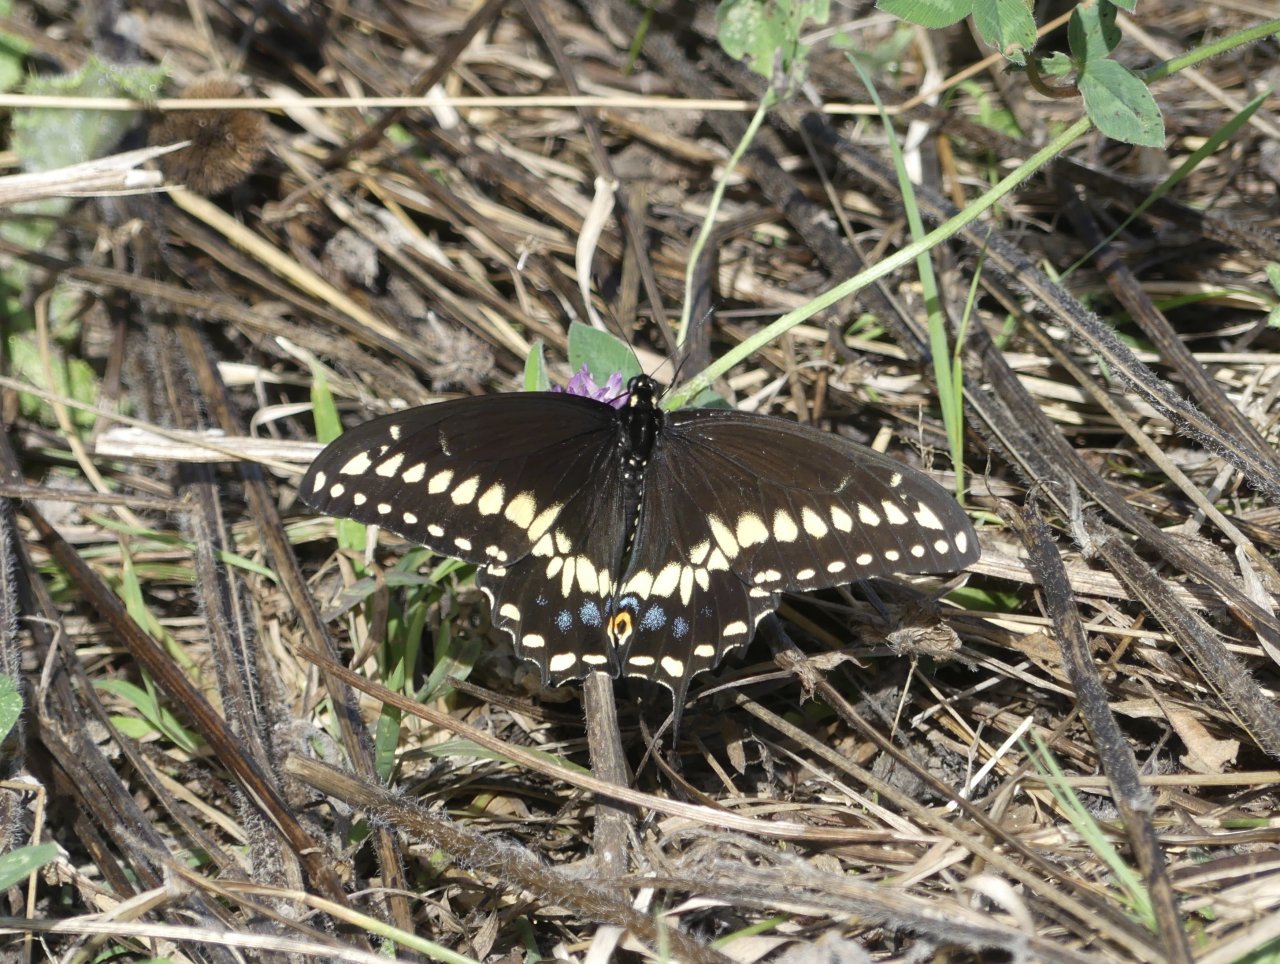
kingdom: Animalia
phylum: Arthropoda
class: Insecta
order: Lepidoptera
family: Papilionidae
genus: Papilio
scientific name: Papilio polyxenes
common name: Black Swallowtail
